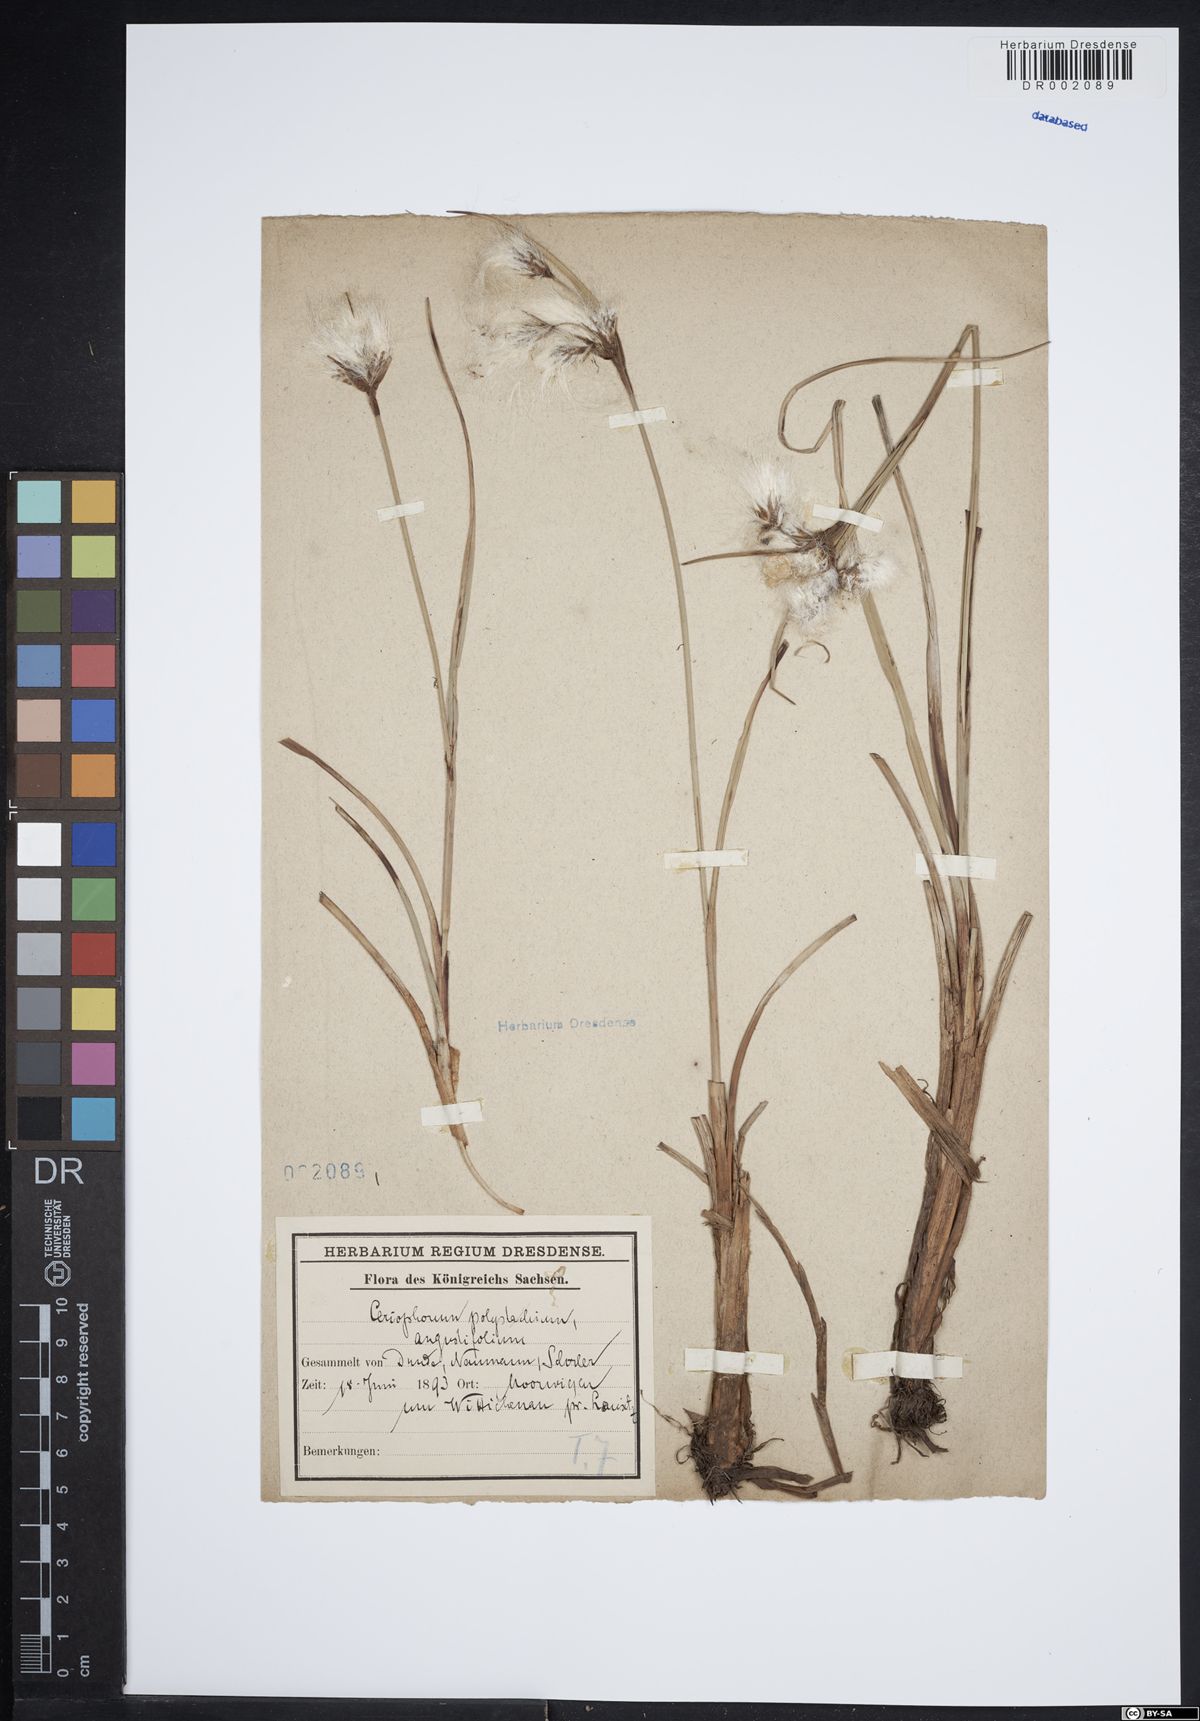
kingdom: Plantae
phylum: Tracheophyta
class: Liliopsida
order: Poales
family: Cyperaceae
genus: Eriophorum
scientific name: Eriophorum angustifolium
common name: Common cottongrass
